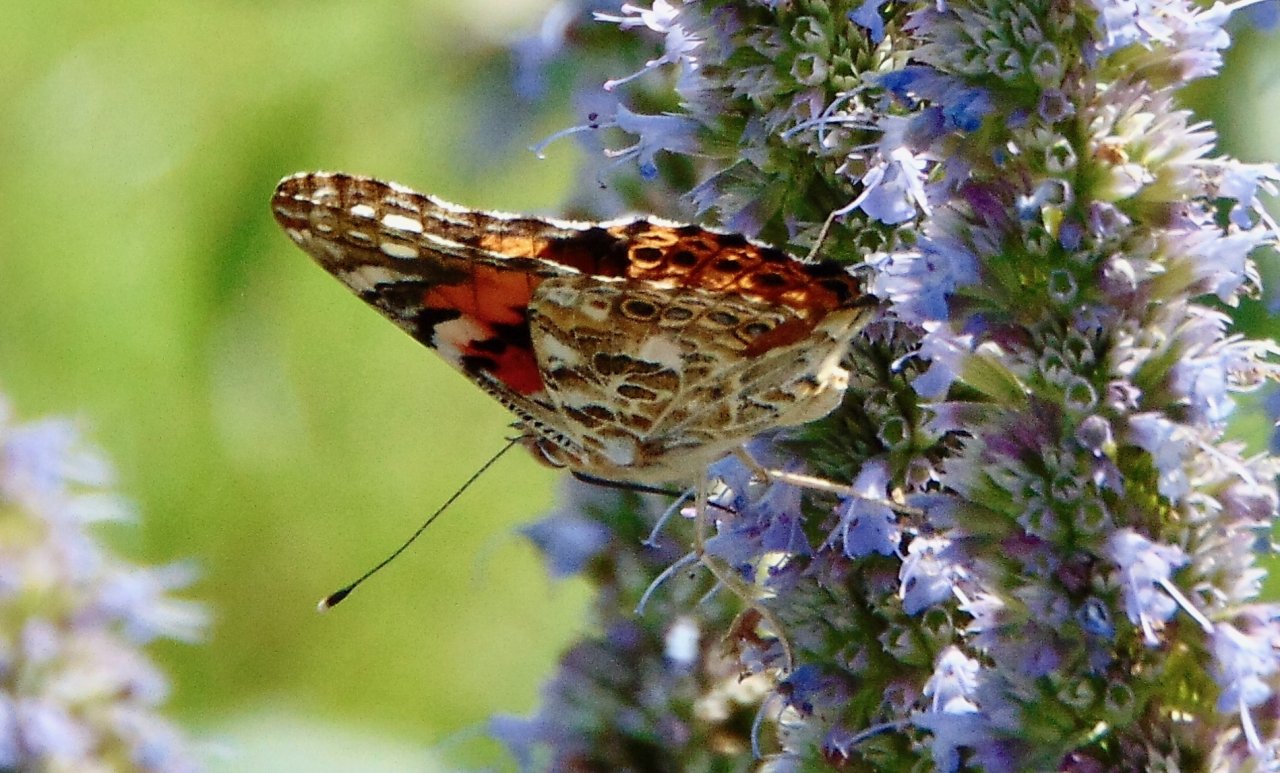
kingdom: Animalia
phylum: Arthropoda
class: Insecta
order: Lepidoptera
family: Nymphalidae
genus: Vanessa
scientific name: Vanessa cardui
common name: Painted Lady
